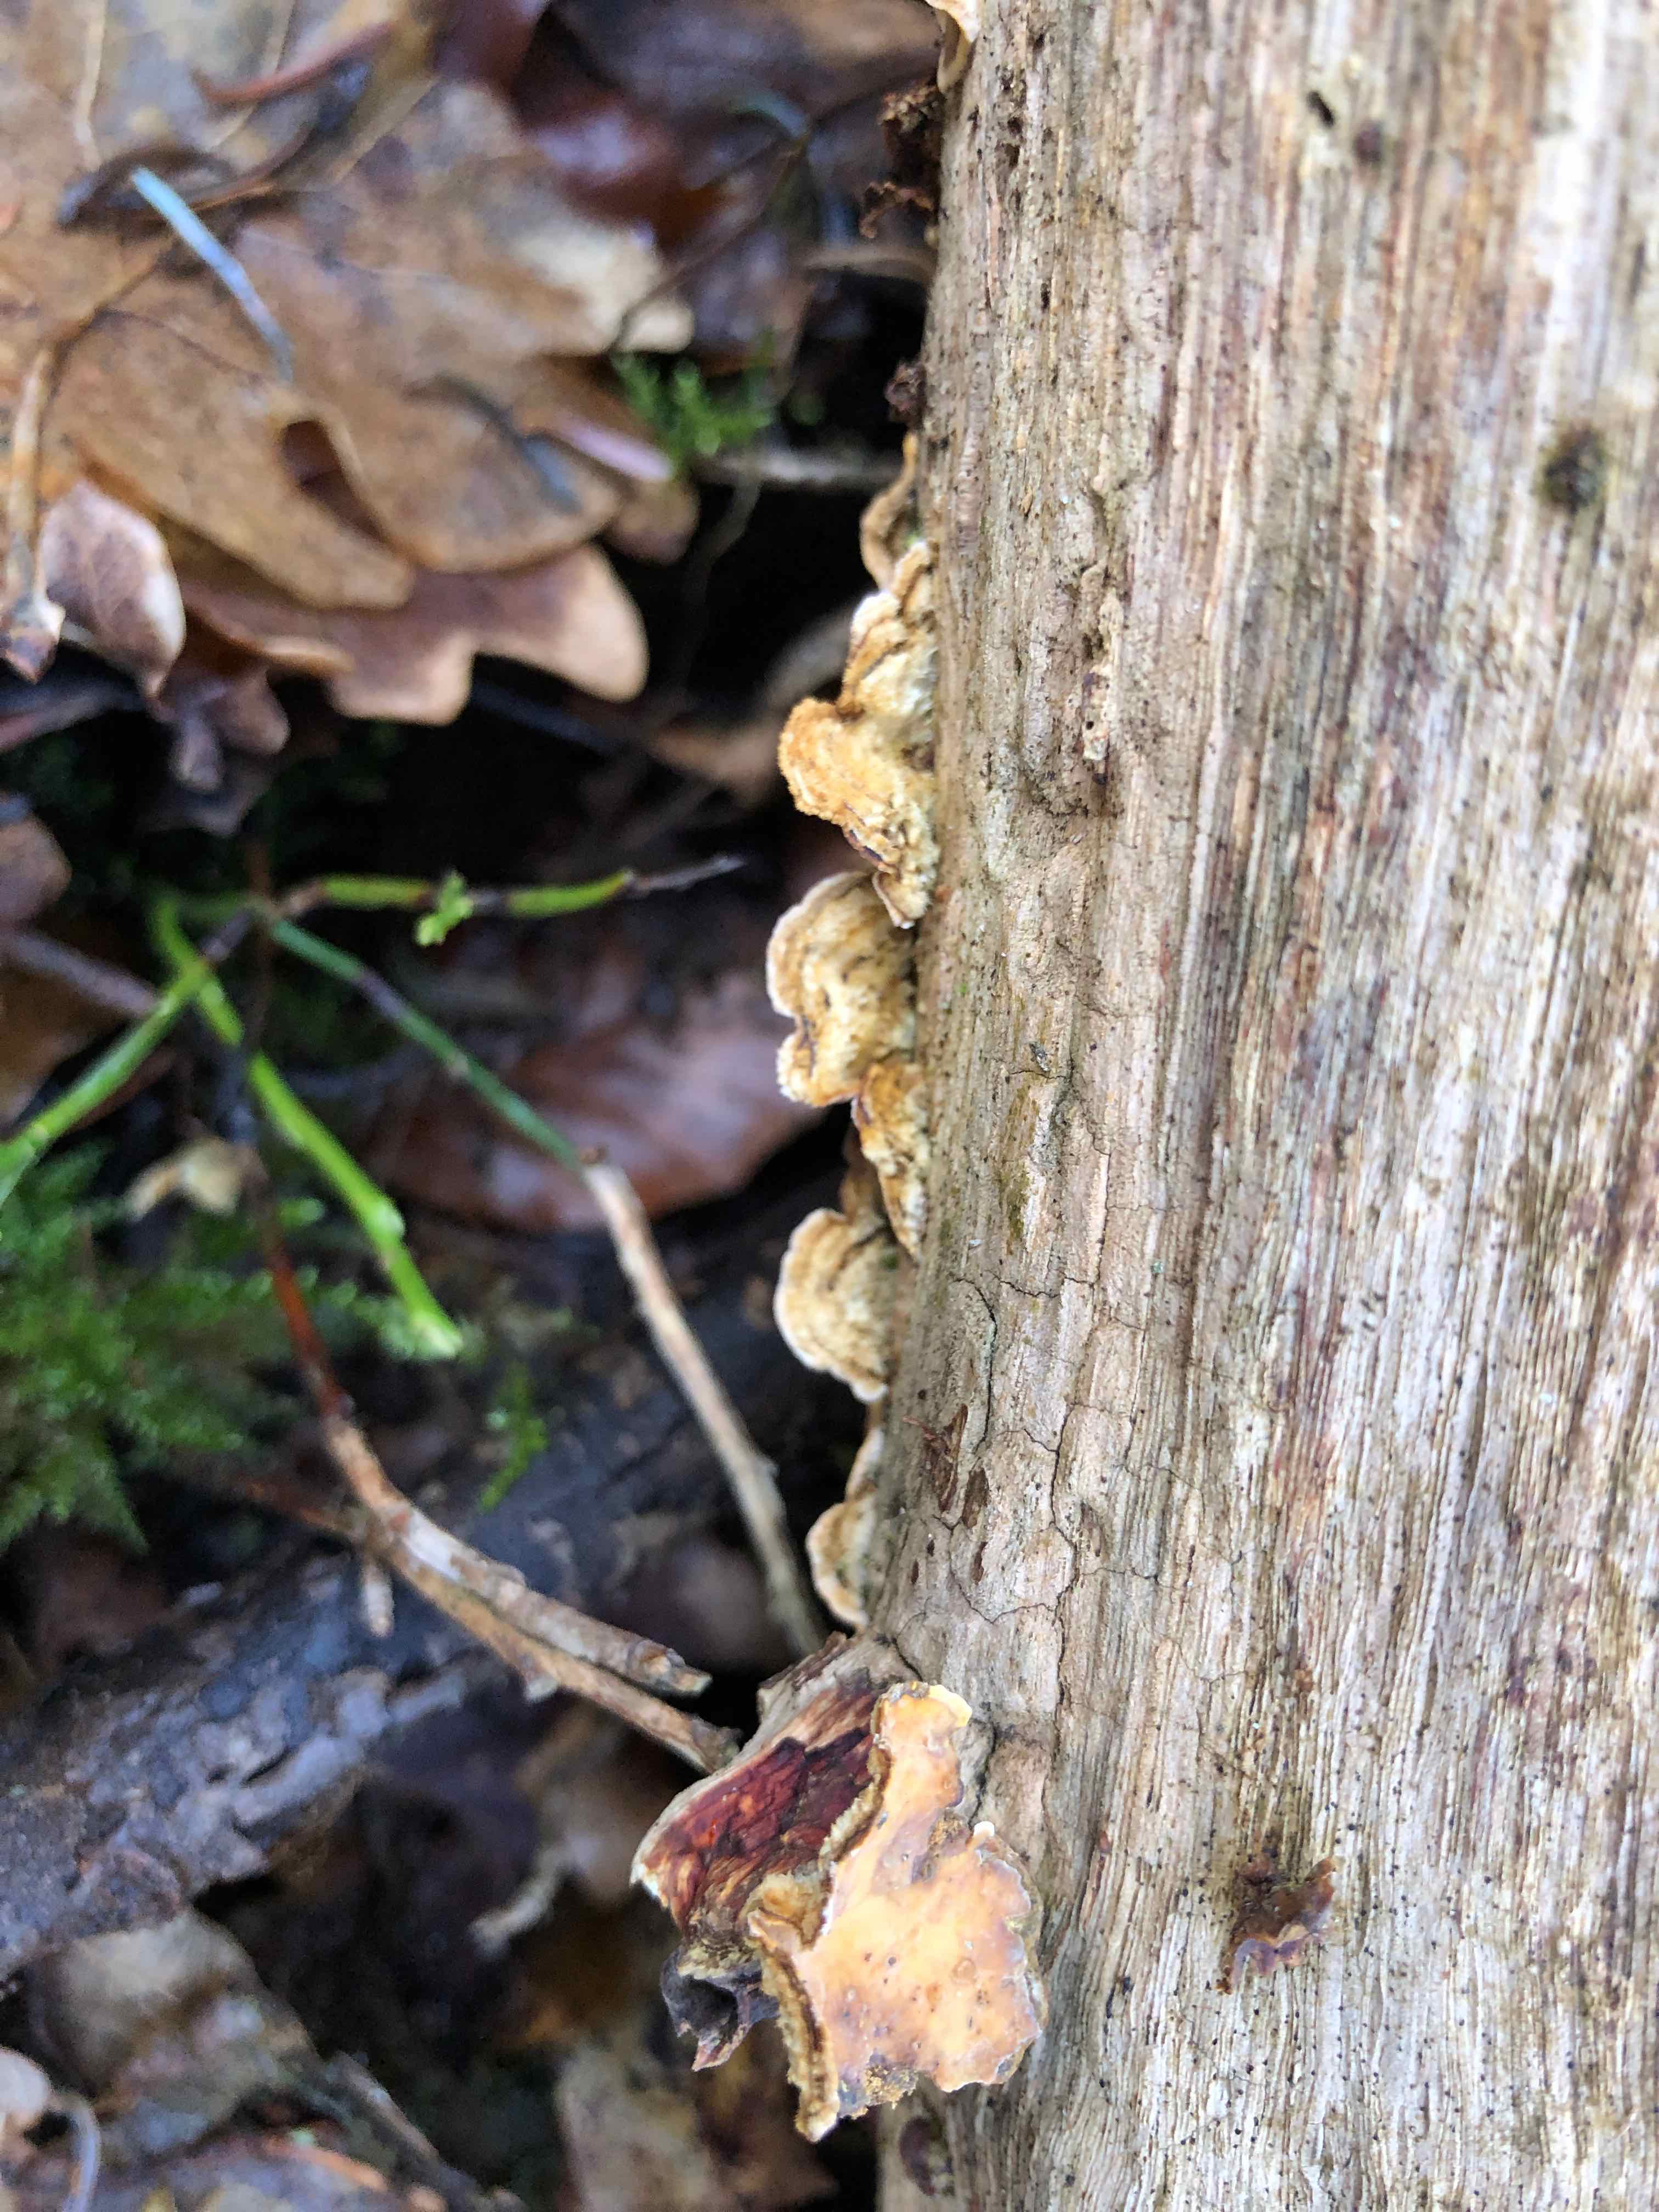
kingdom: Fungi
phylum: Basidiomycota
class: Agaricomycetes
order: Russulales
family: Stereaceae
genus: Stereum
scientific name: Stereum hirsutum
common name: håret lædersvamp
